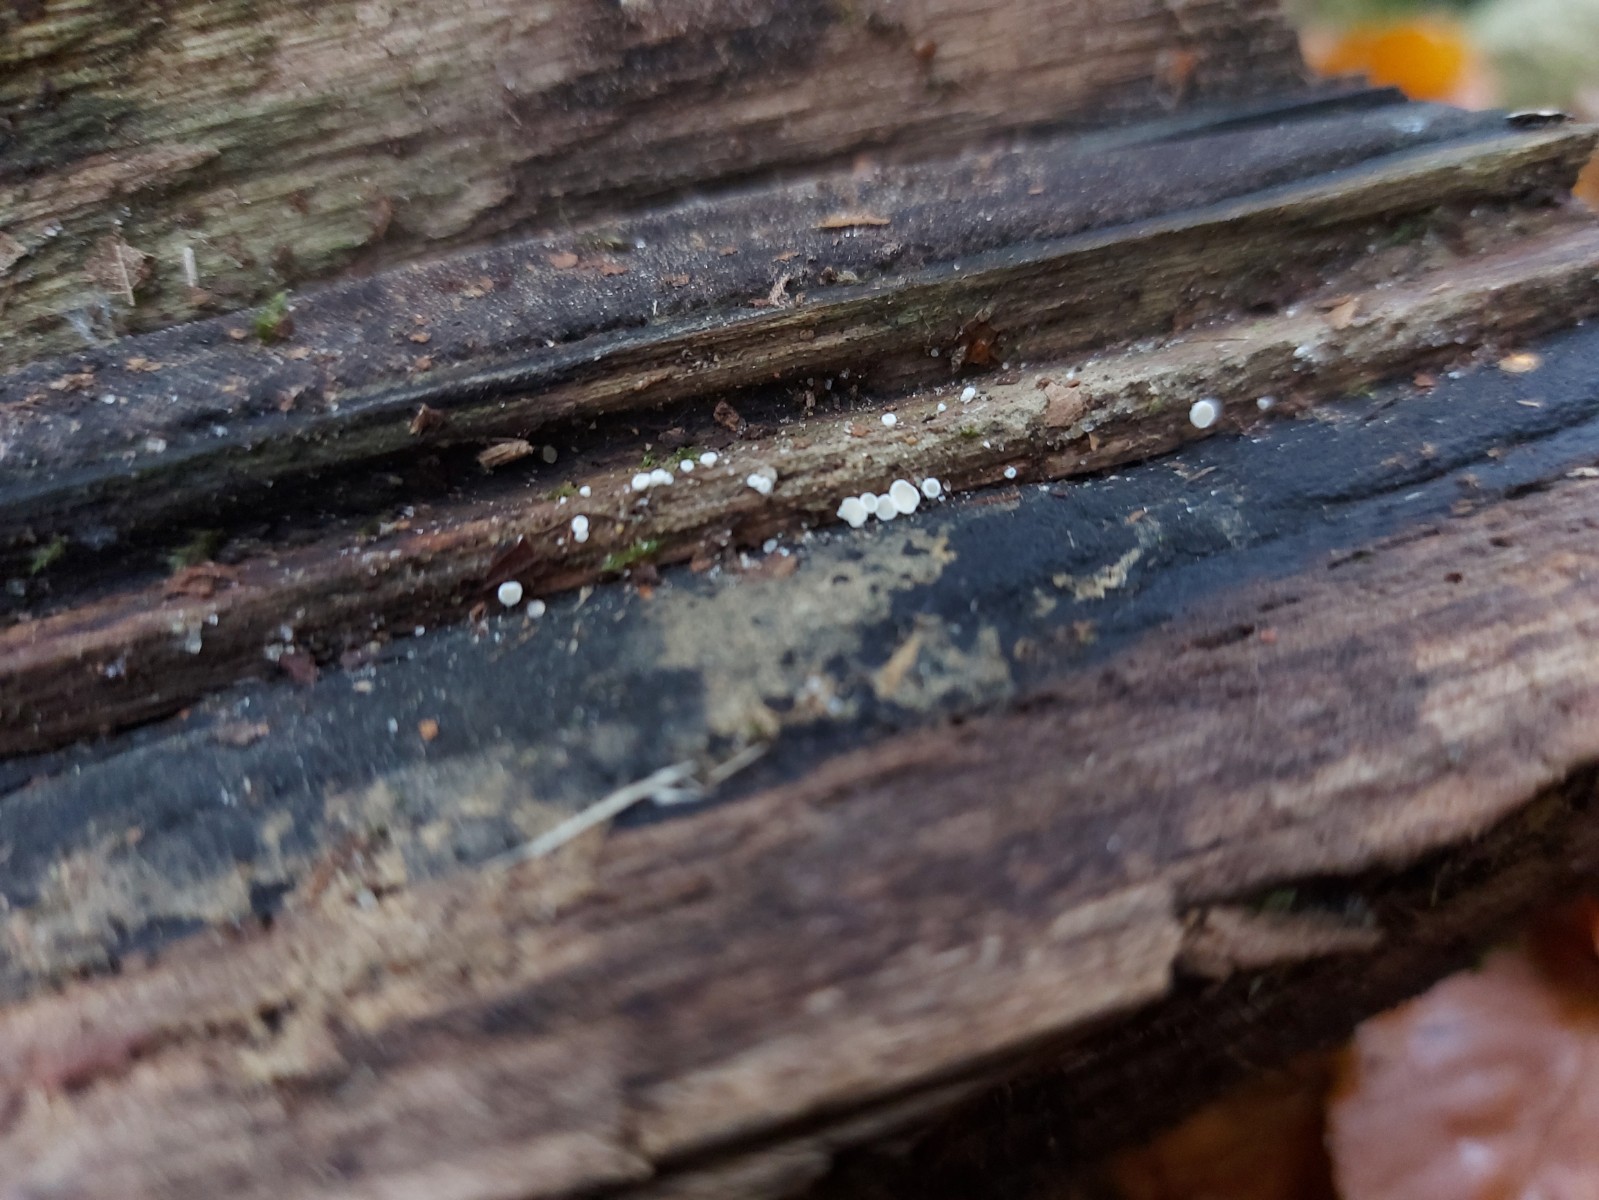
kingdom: Fungi
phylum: Ascomycota
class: Leotiomycetes
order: Helotiales
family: Lachnaceae
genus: Lachnum
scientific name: Lachnum
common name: frynseskive
